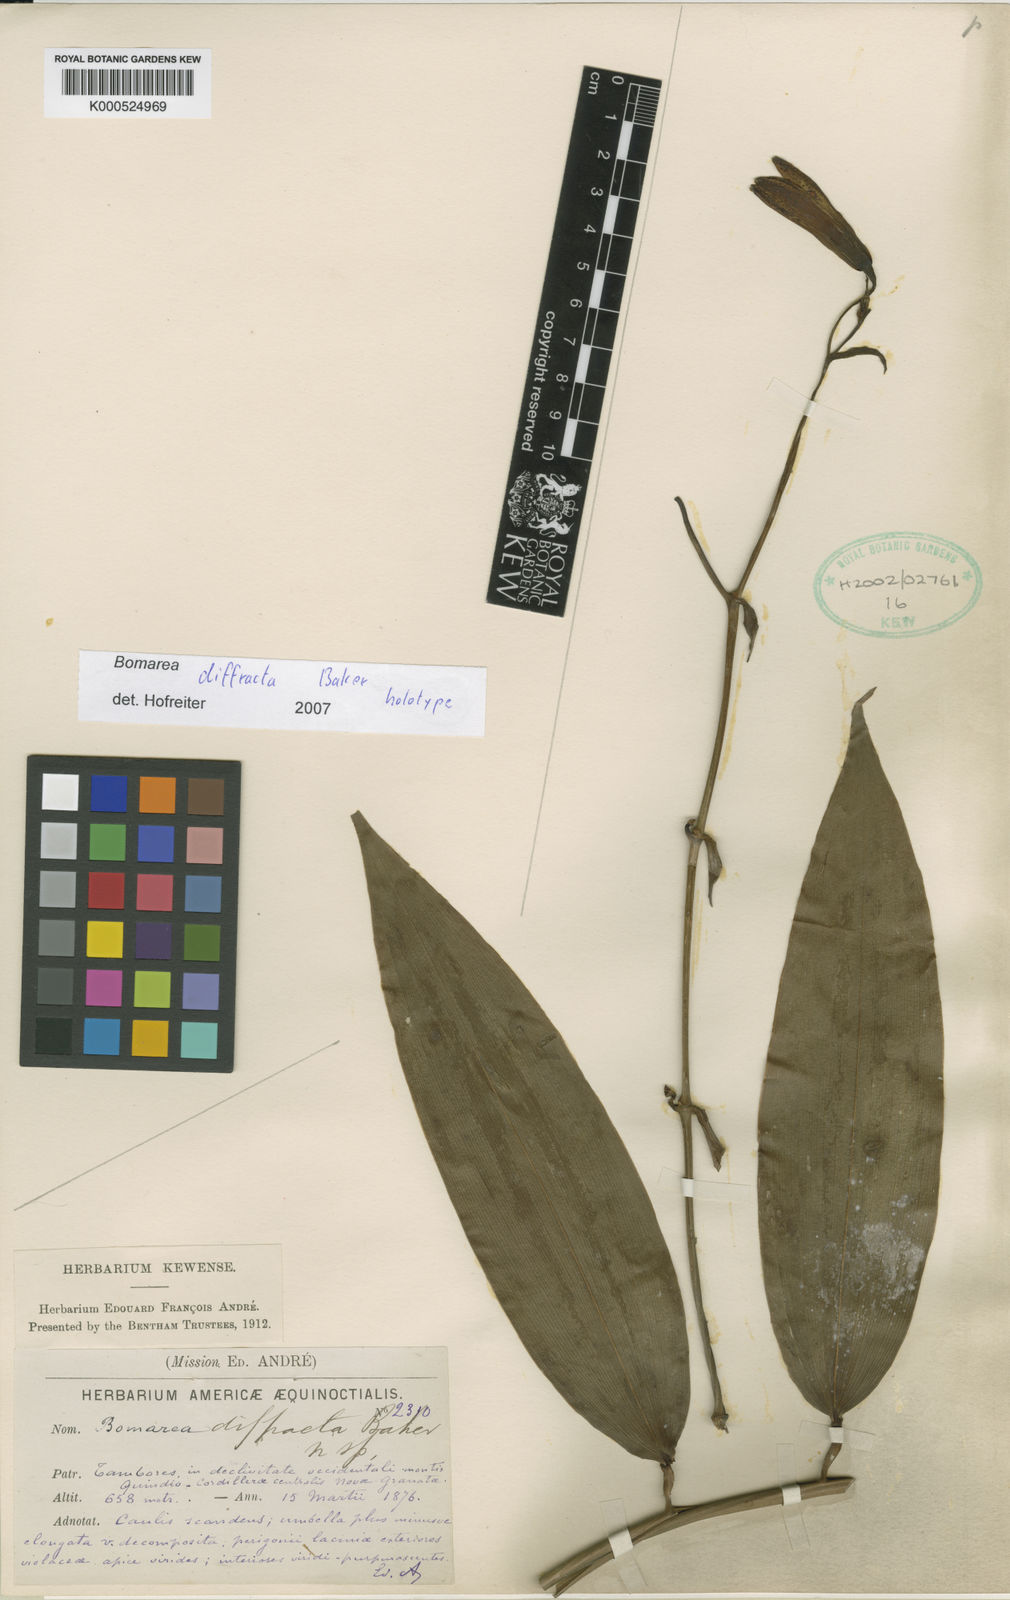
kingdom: Plantae
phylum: Tracheophyta
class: Liliopsida
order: Liliales
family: Alstroemeriaceae
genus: Bomarea
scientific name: Bomarea diffracta
